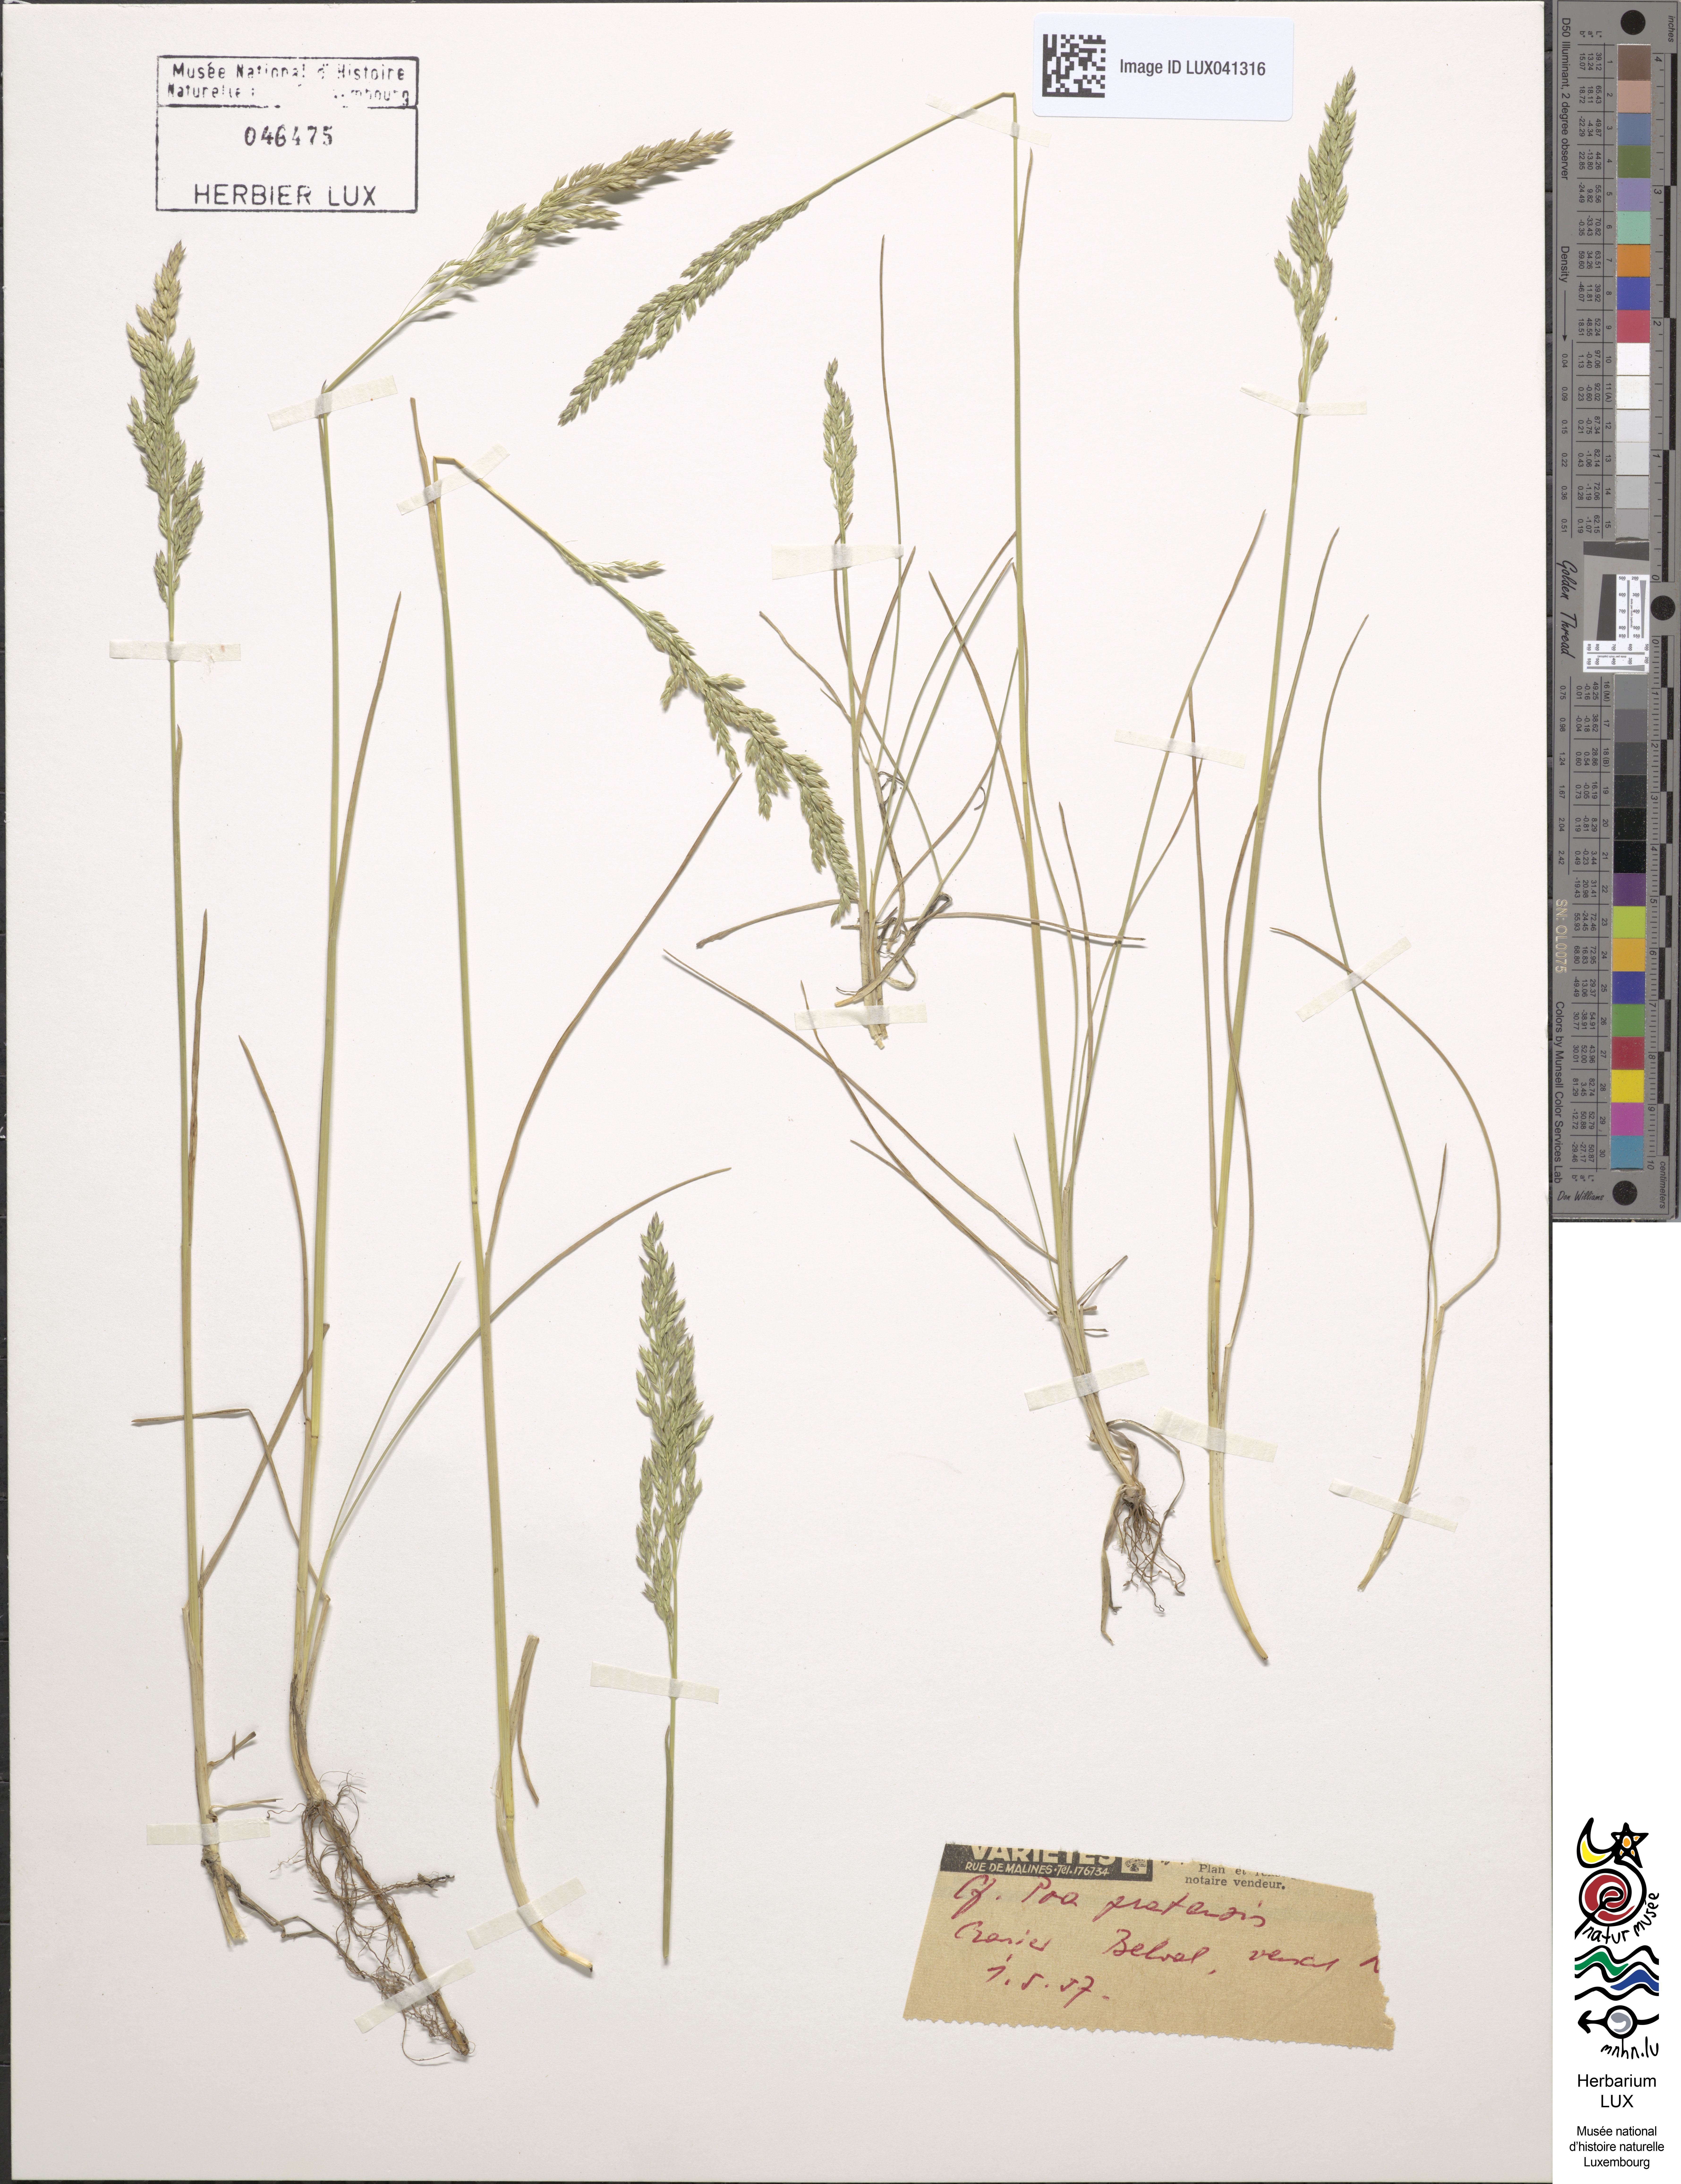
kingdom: Plantae
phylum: Tracheophyta
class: Liliopsida
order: Poales
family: Poaceae
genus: Poa
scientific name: Poa pratensis
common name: Kentucky bluegrass
